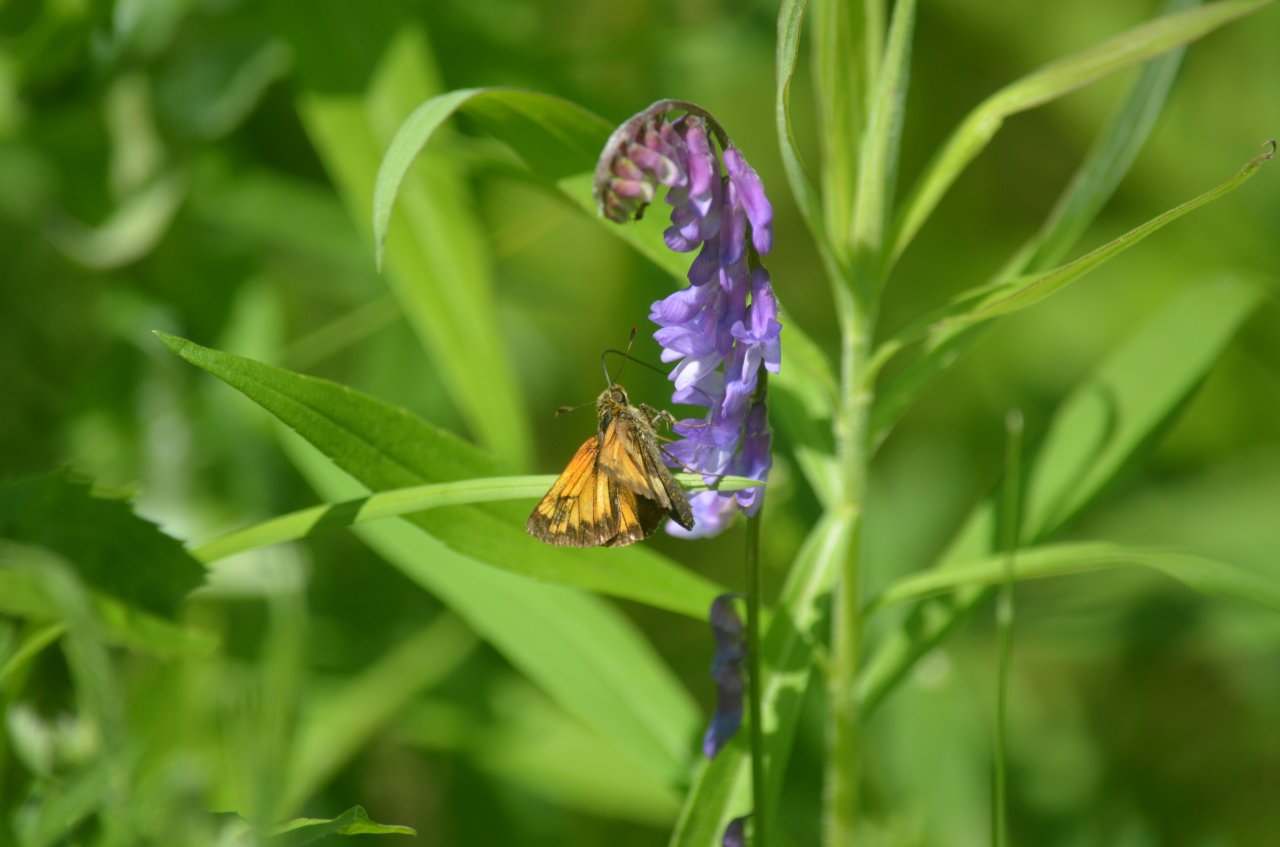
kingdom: Animalia
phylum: Arthropoda
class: Insecta
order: Lepidoptera
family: Hesperiidae
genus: Lon
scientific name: Lon hobomok
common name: Hobomok Skipper
